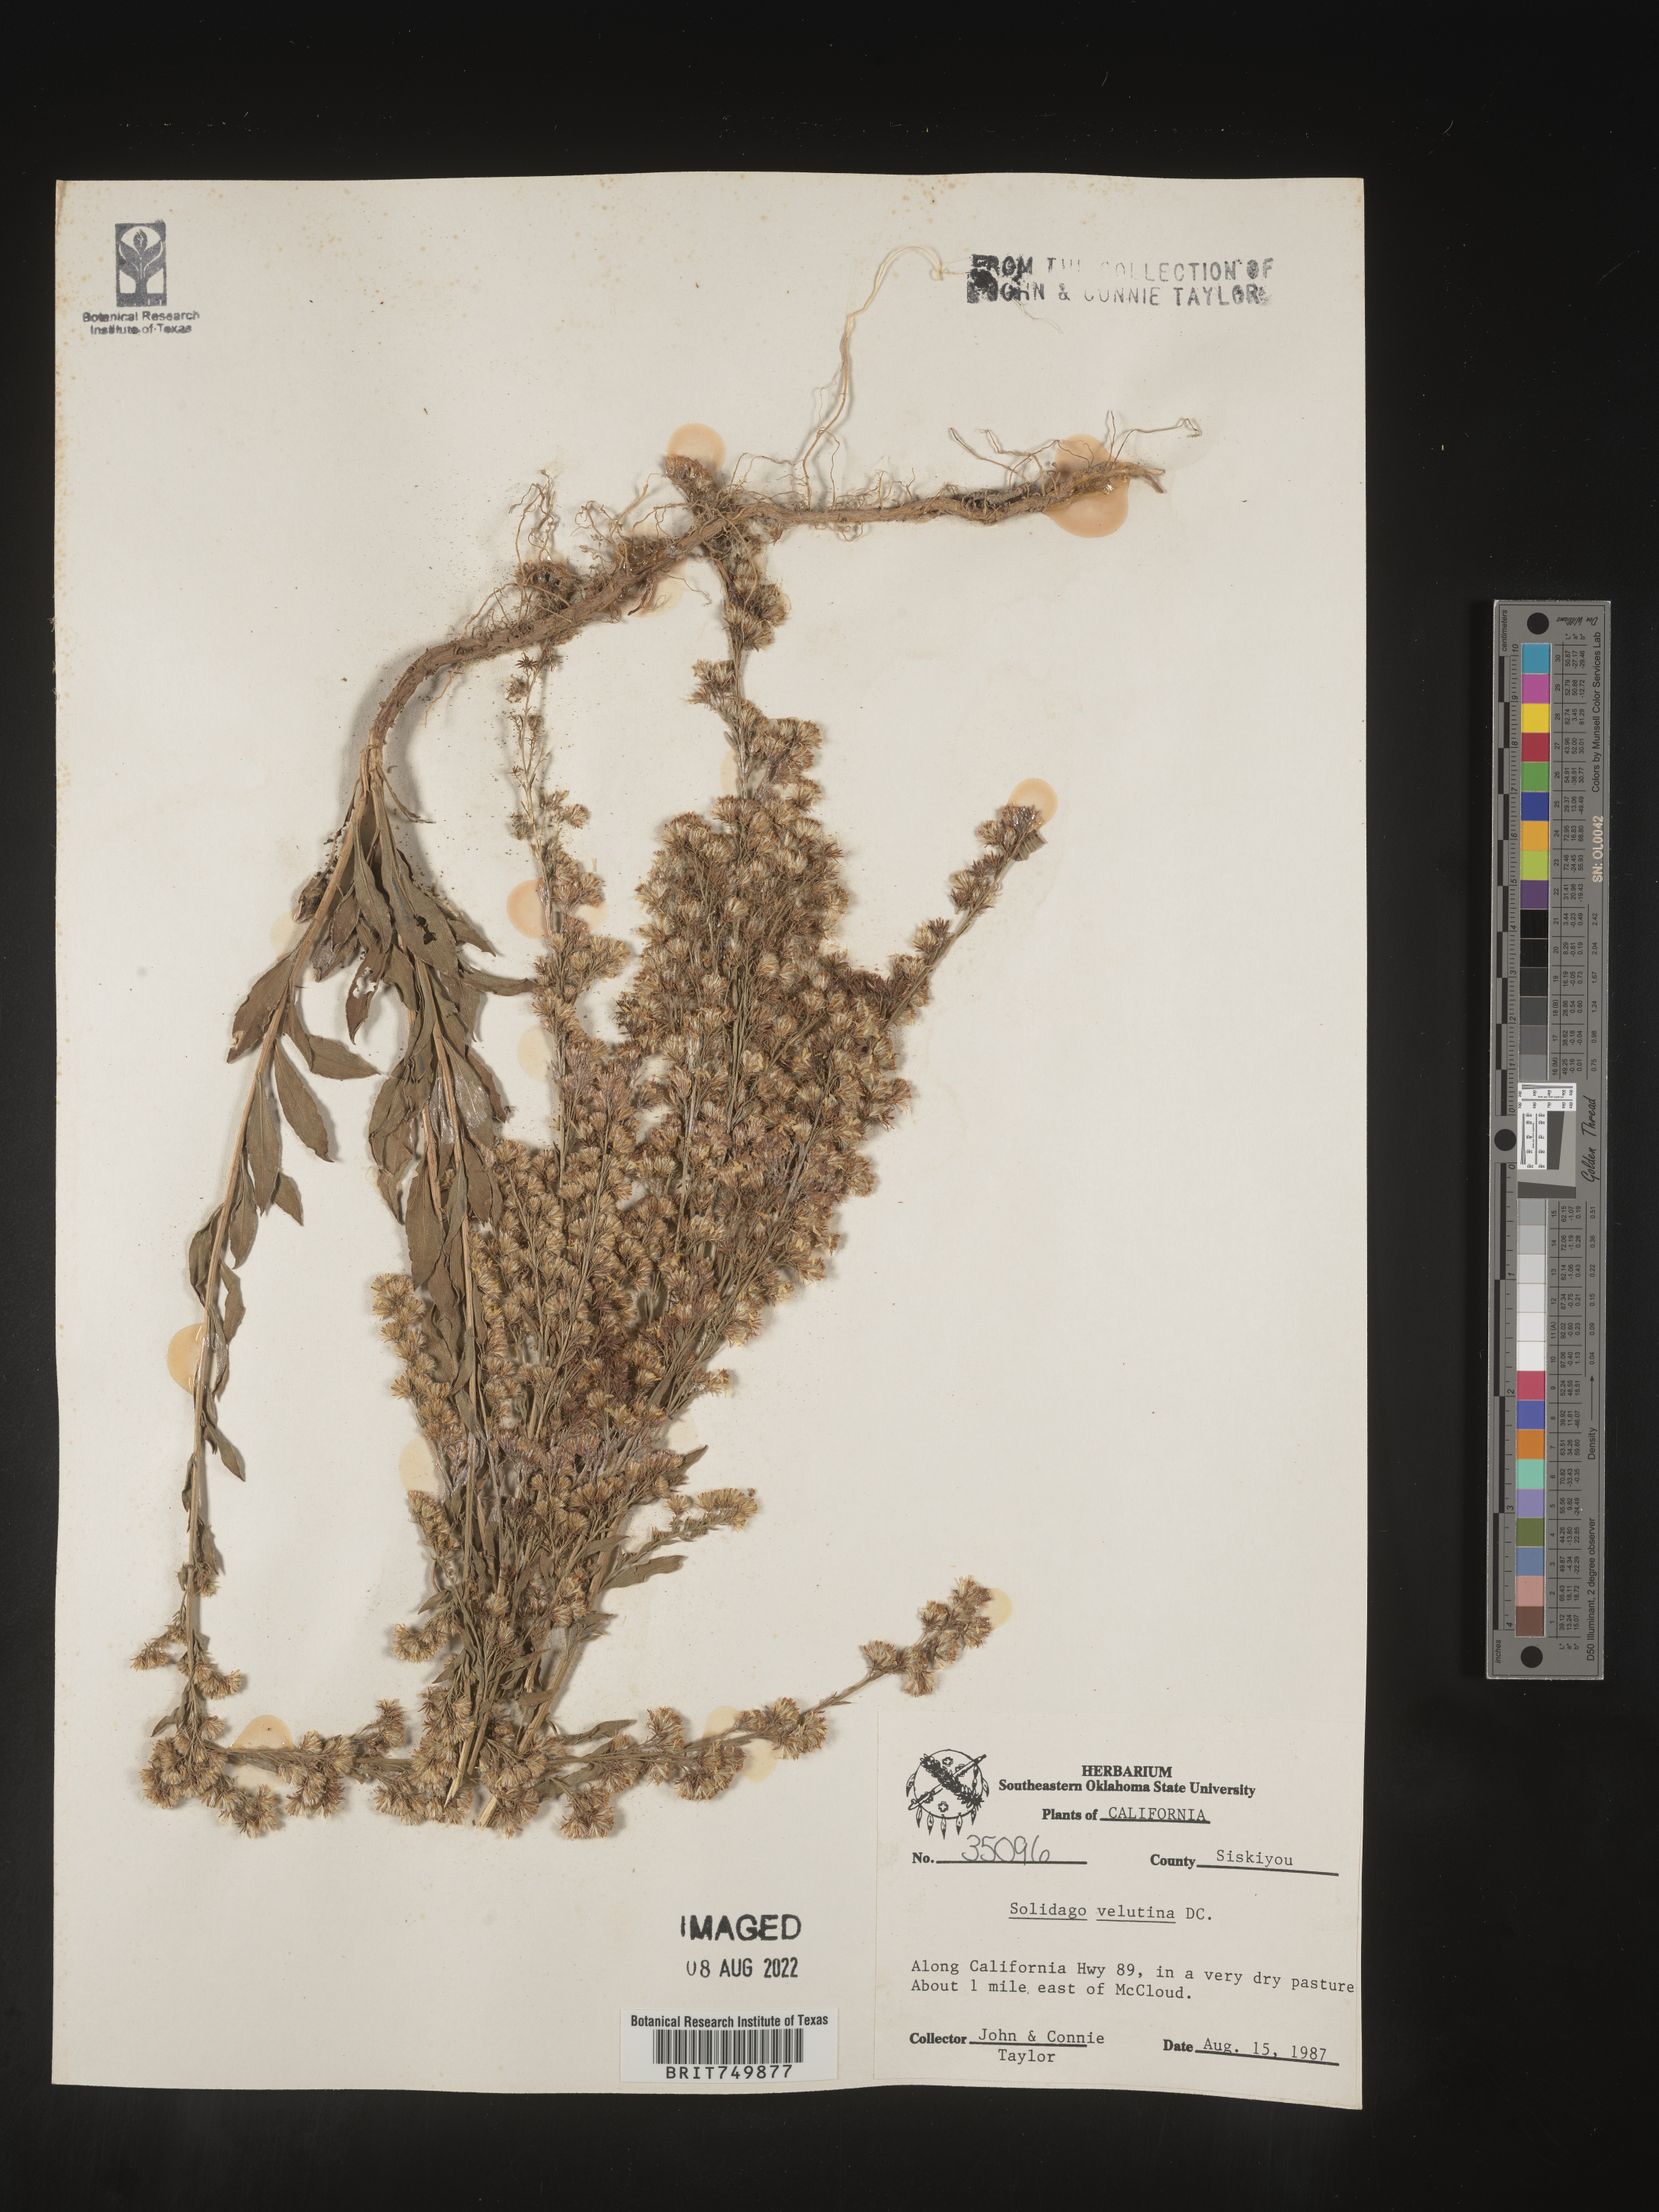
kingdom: Plantae
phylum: Tracheophyta
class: Magnoliopsida
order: Asterales
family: Asteraceae
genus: Solidago
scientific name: Solidago velutina
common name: Three-nerve goldenrod
